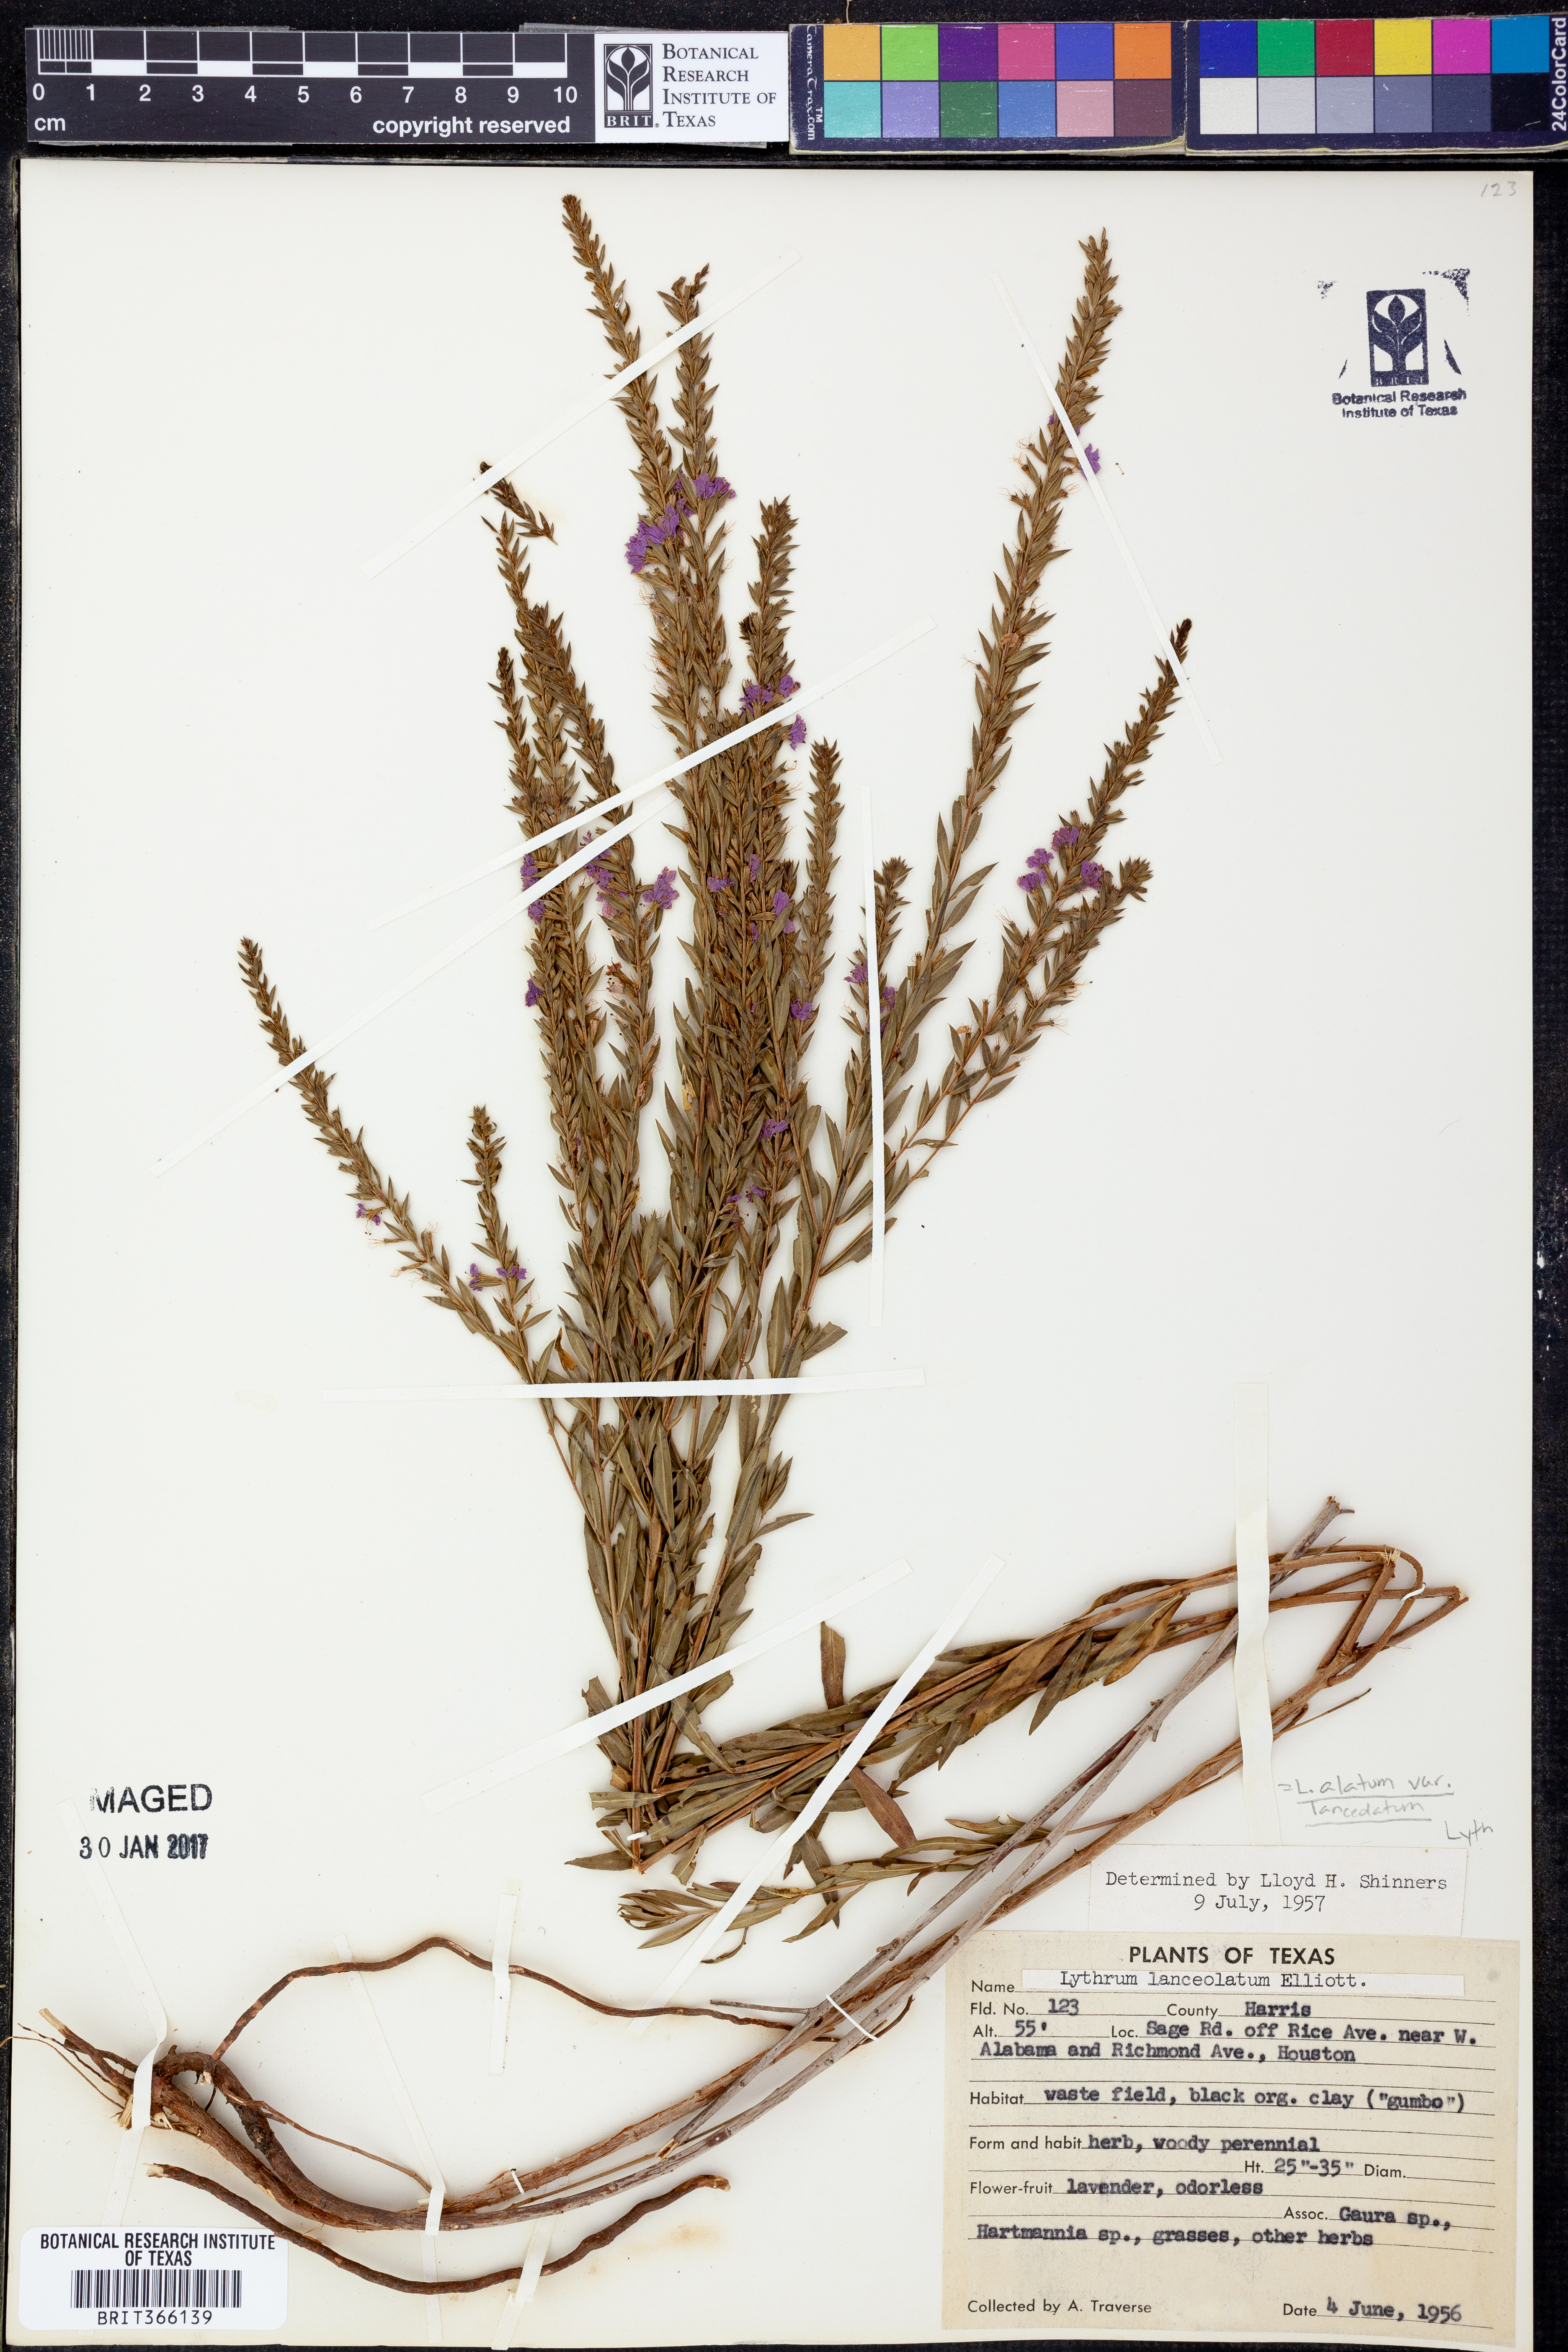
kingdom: Plantae
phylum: Tracheophyta
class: Magnoliopsida
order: Myrtales
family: Lythraceae
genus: Lythrum
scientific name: Lythrum alatum
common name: Winged loosestrife
